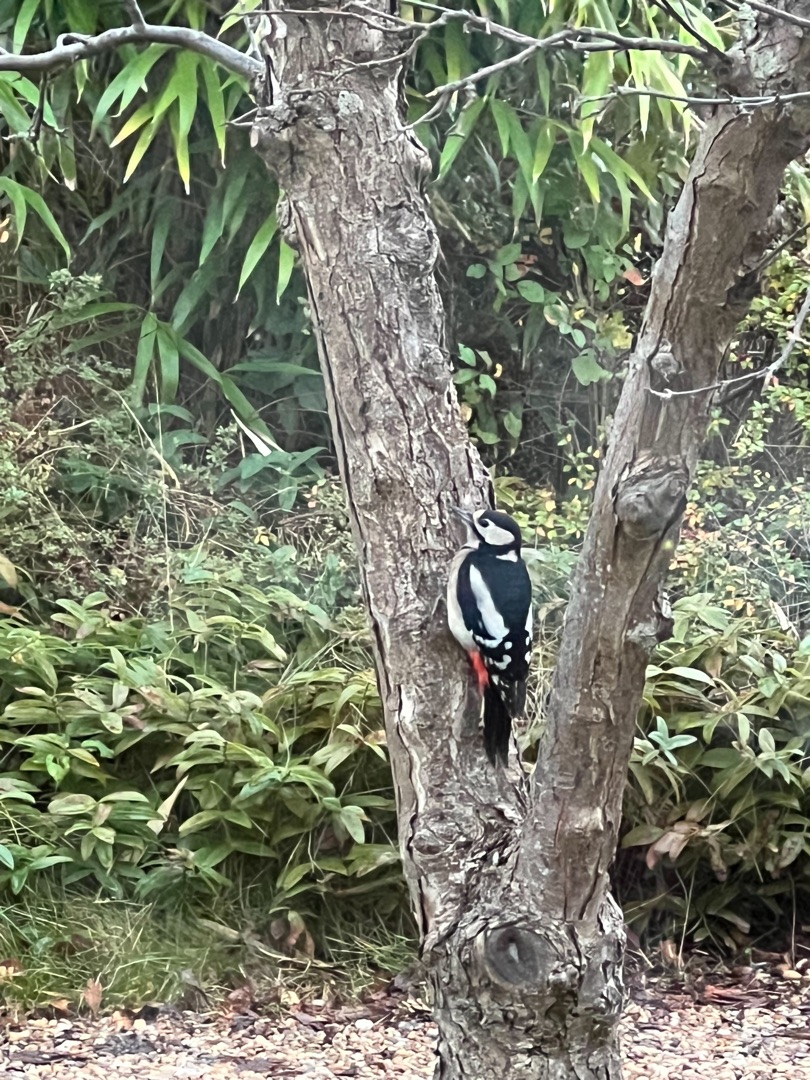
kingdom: Animalia
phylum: Chordata
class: Aves
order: Piciformes
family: Picidae
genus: Dendrocopos
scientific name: Dendrocopos major
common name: Stor flagspætte
